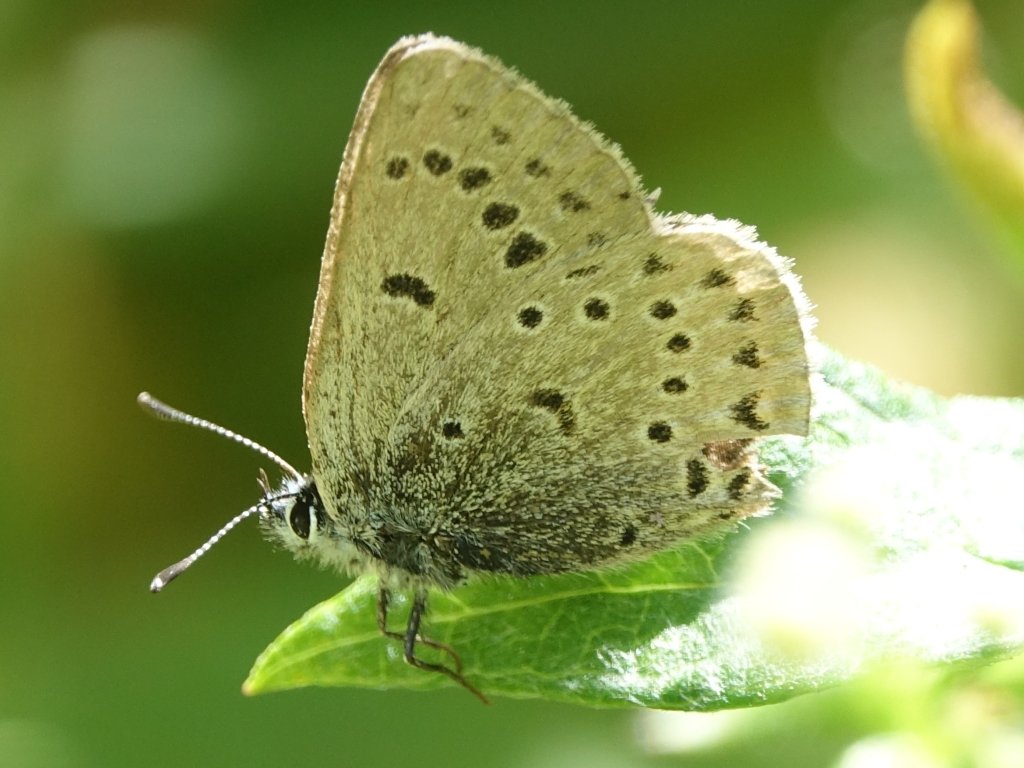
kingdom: Animalia
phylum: Arthropoda
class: Insecta
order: Lepidoptera
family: Lycaenidae
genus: Plebejus
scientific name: Plebejus saepiolus
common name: Greenish Blue
